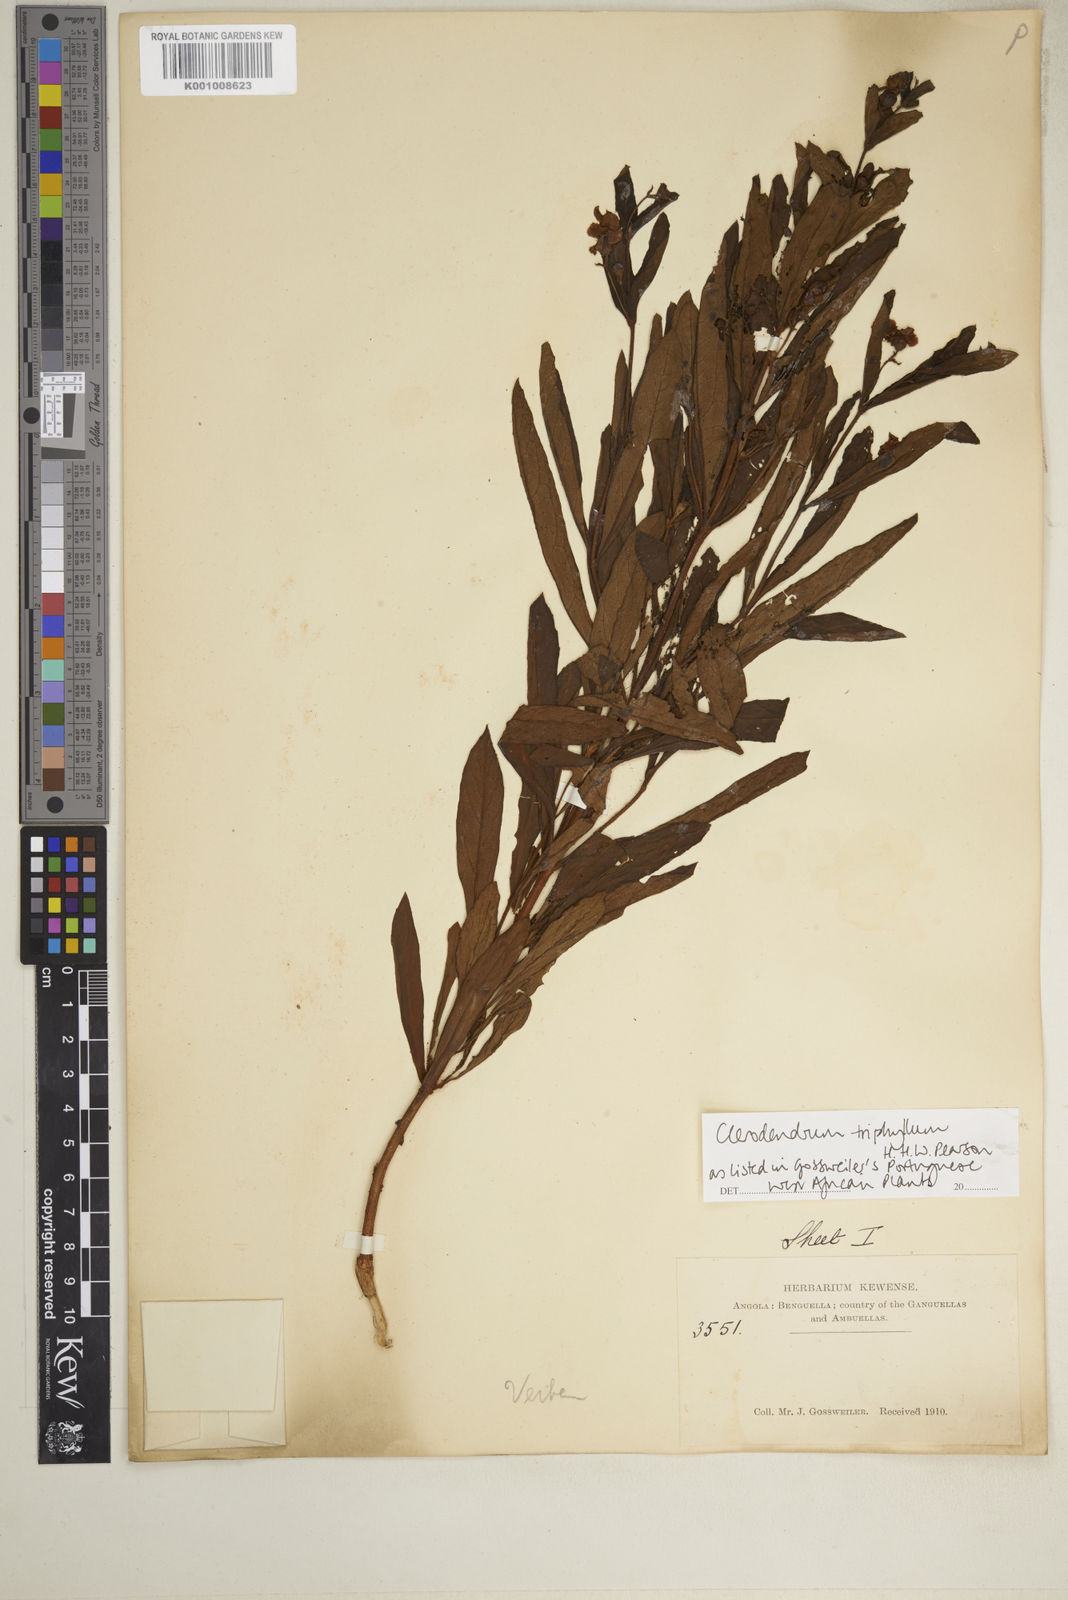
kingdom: Plantae
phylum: Tracheophyta
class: Magnoliopsida
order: Lamiales
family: Lamiaceae
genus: Rotheca
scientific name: Rotheca hirsuta
